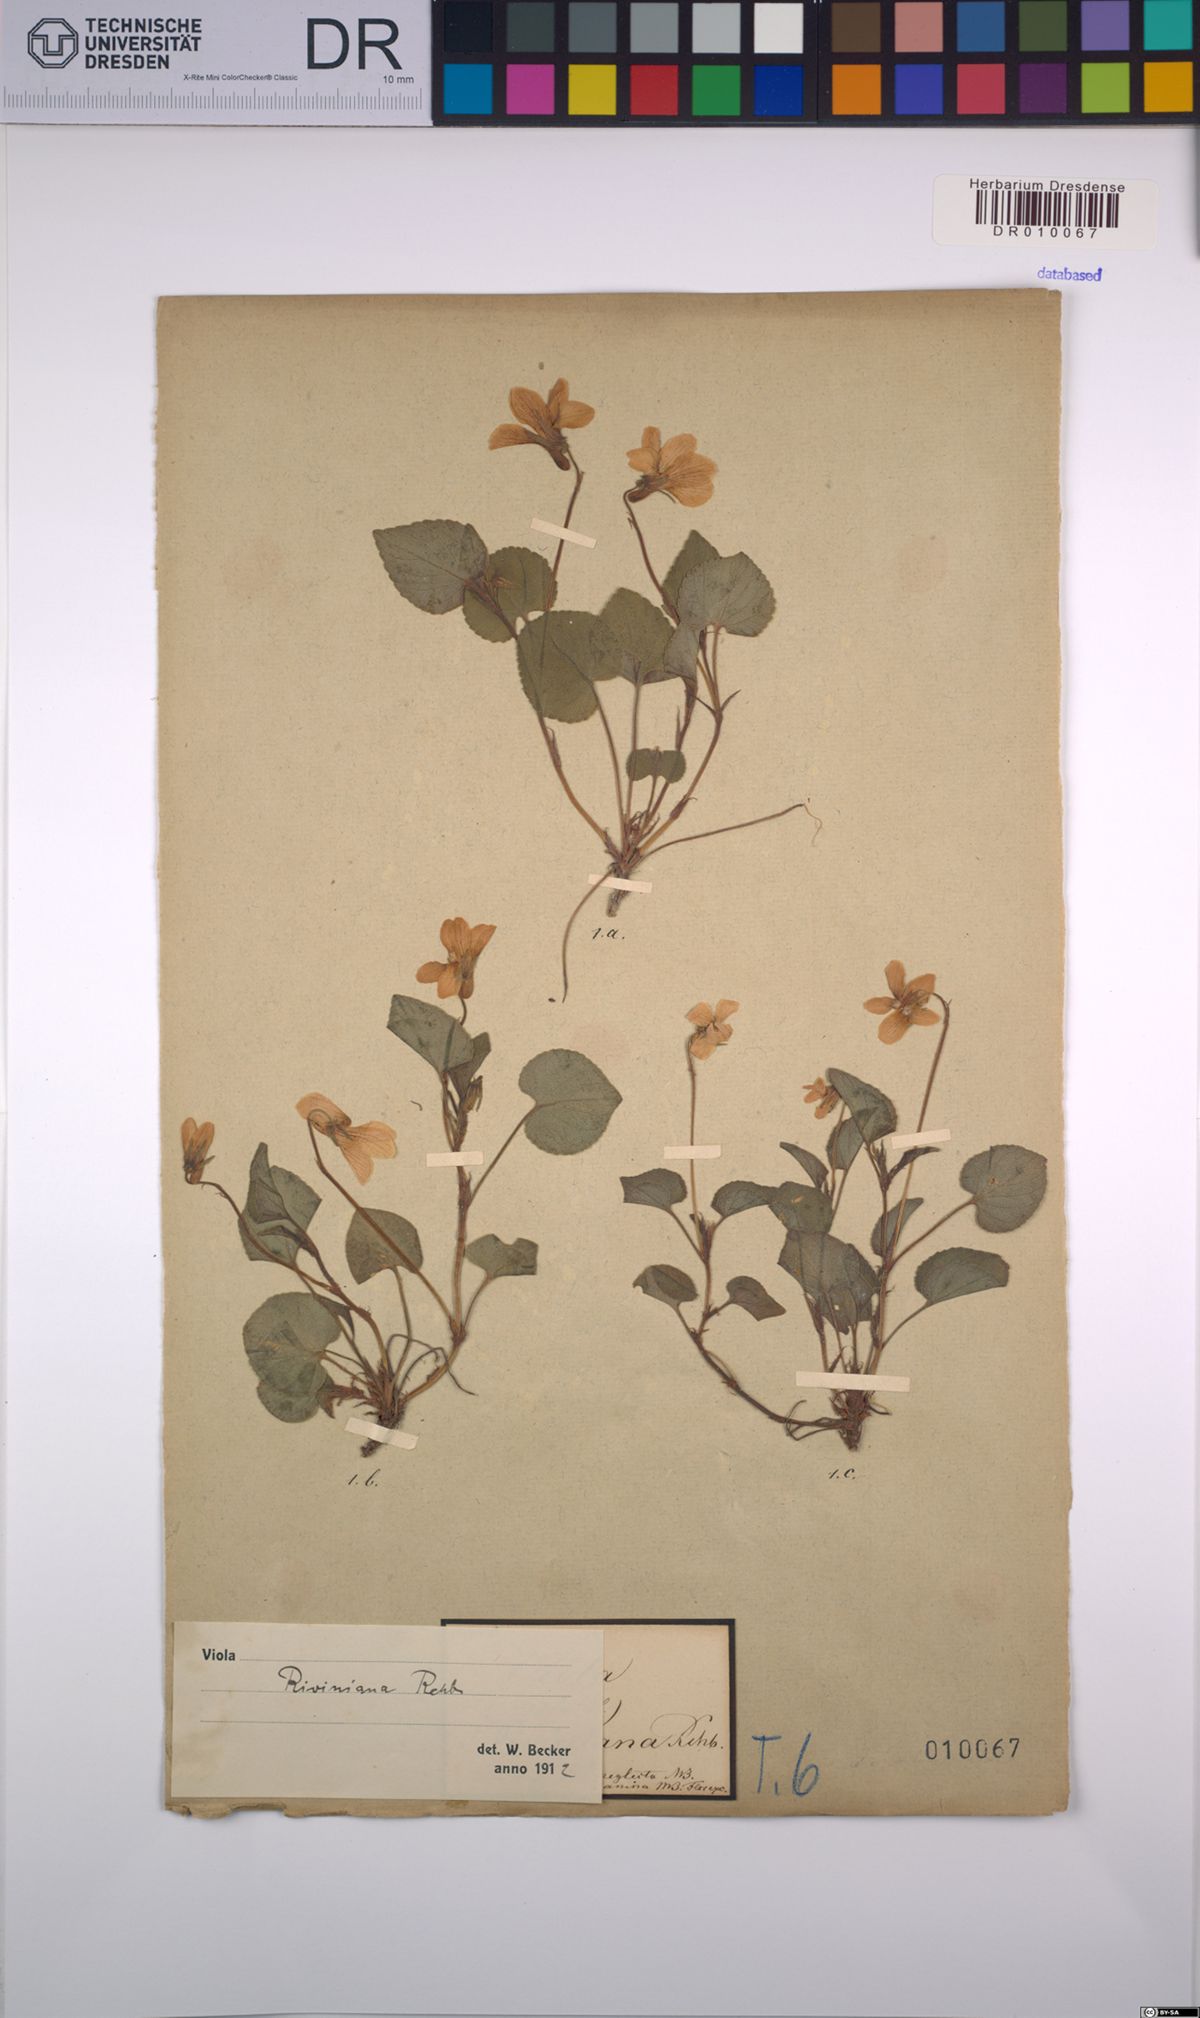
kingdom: Plantae
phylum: Tracheophyta
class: Magnoliopsida
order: Malpighiales
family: Violaceae
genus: Viola
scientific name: Viola riviniana
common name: Common dog-violet
